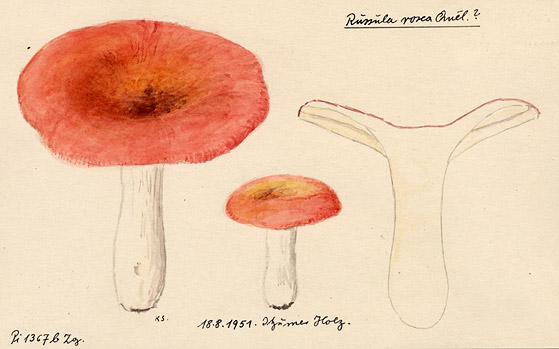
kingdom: Fungi
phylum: Basidiomycota
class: Agaricomycetes
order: Russulales
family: Russulaceae
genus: Russula
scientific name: Russula aurora
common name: Dawn brittlegill
